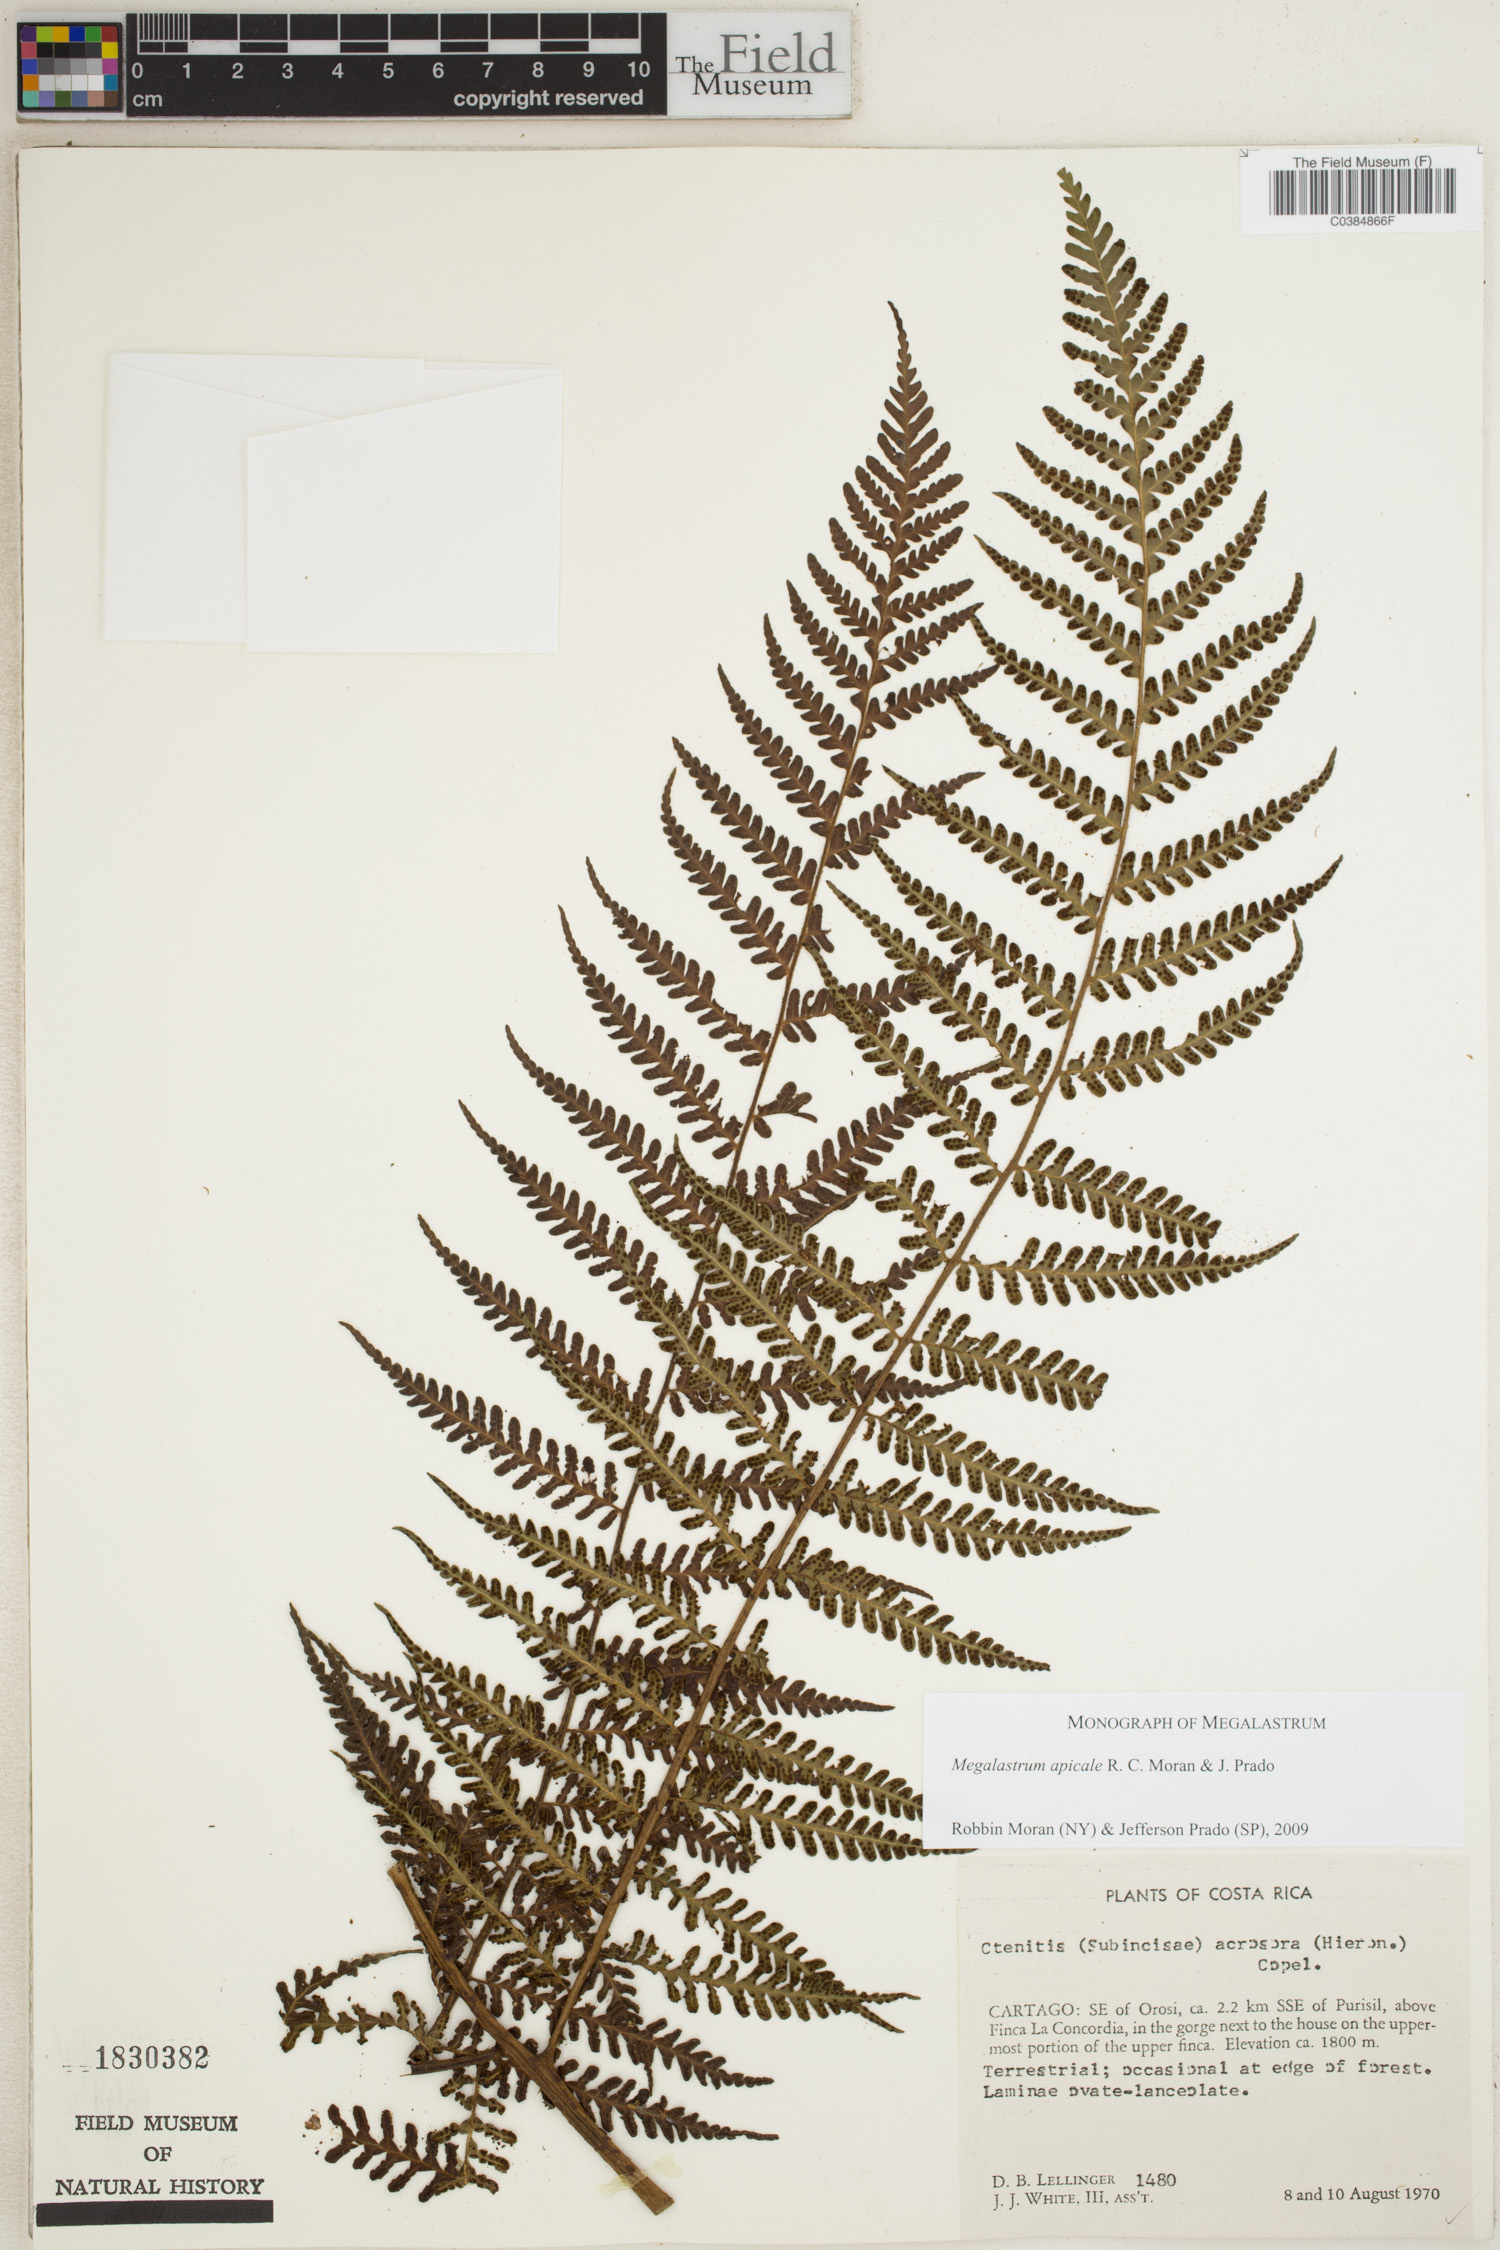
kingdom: Plantae
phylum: Tracheophyta
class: Polypodiopsida
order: Polypodiales
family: Dryopteridaceae
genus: Megalastrum
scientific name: Megalastrum apicale
